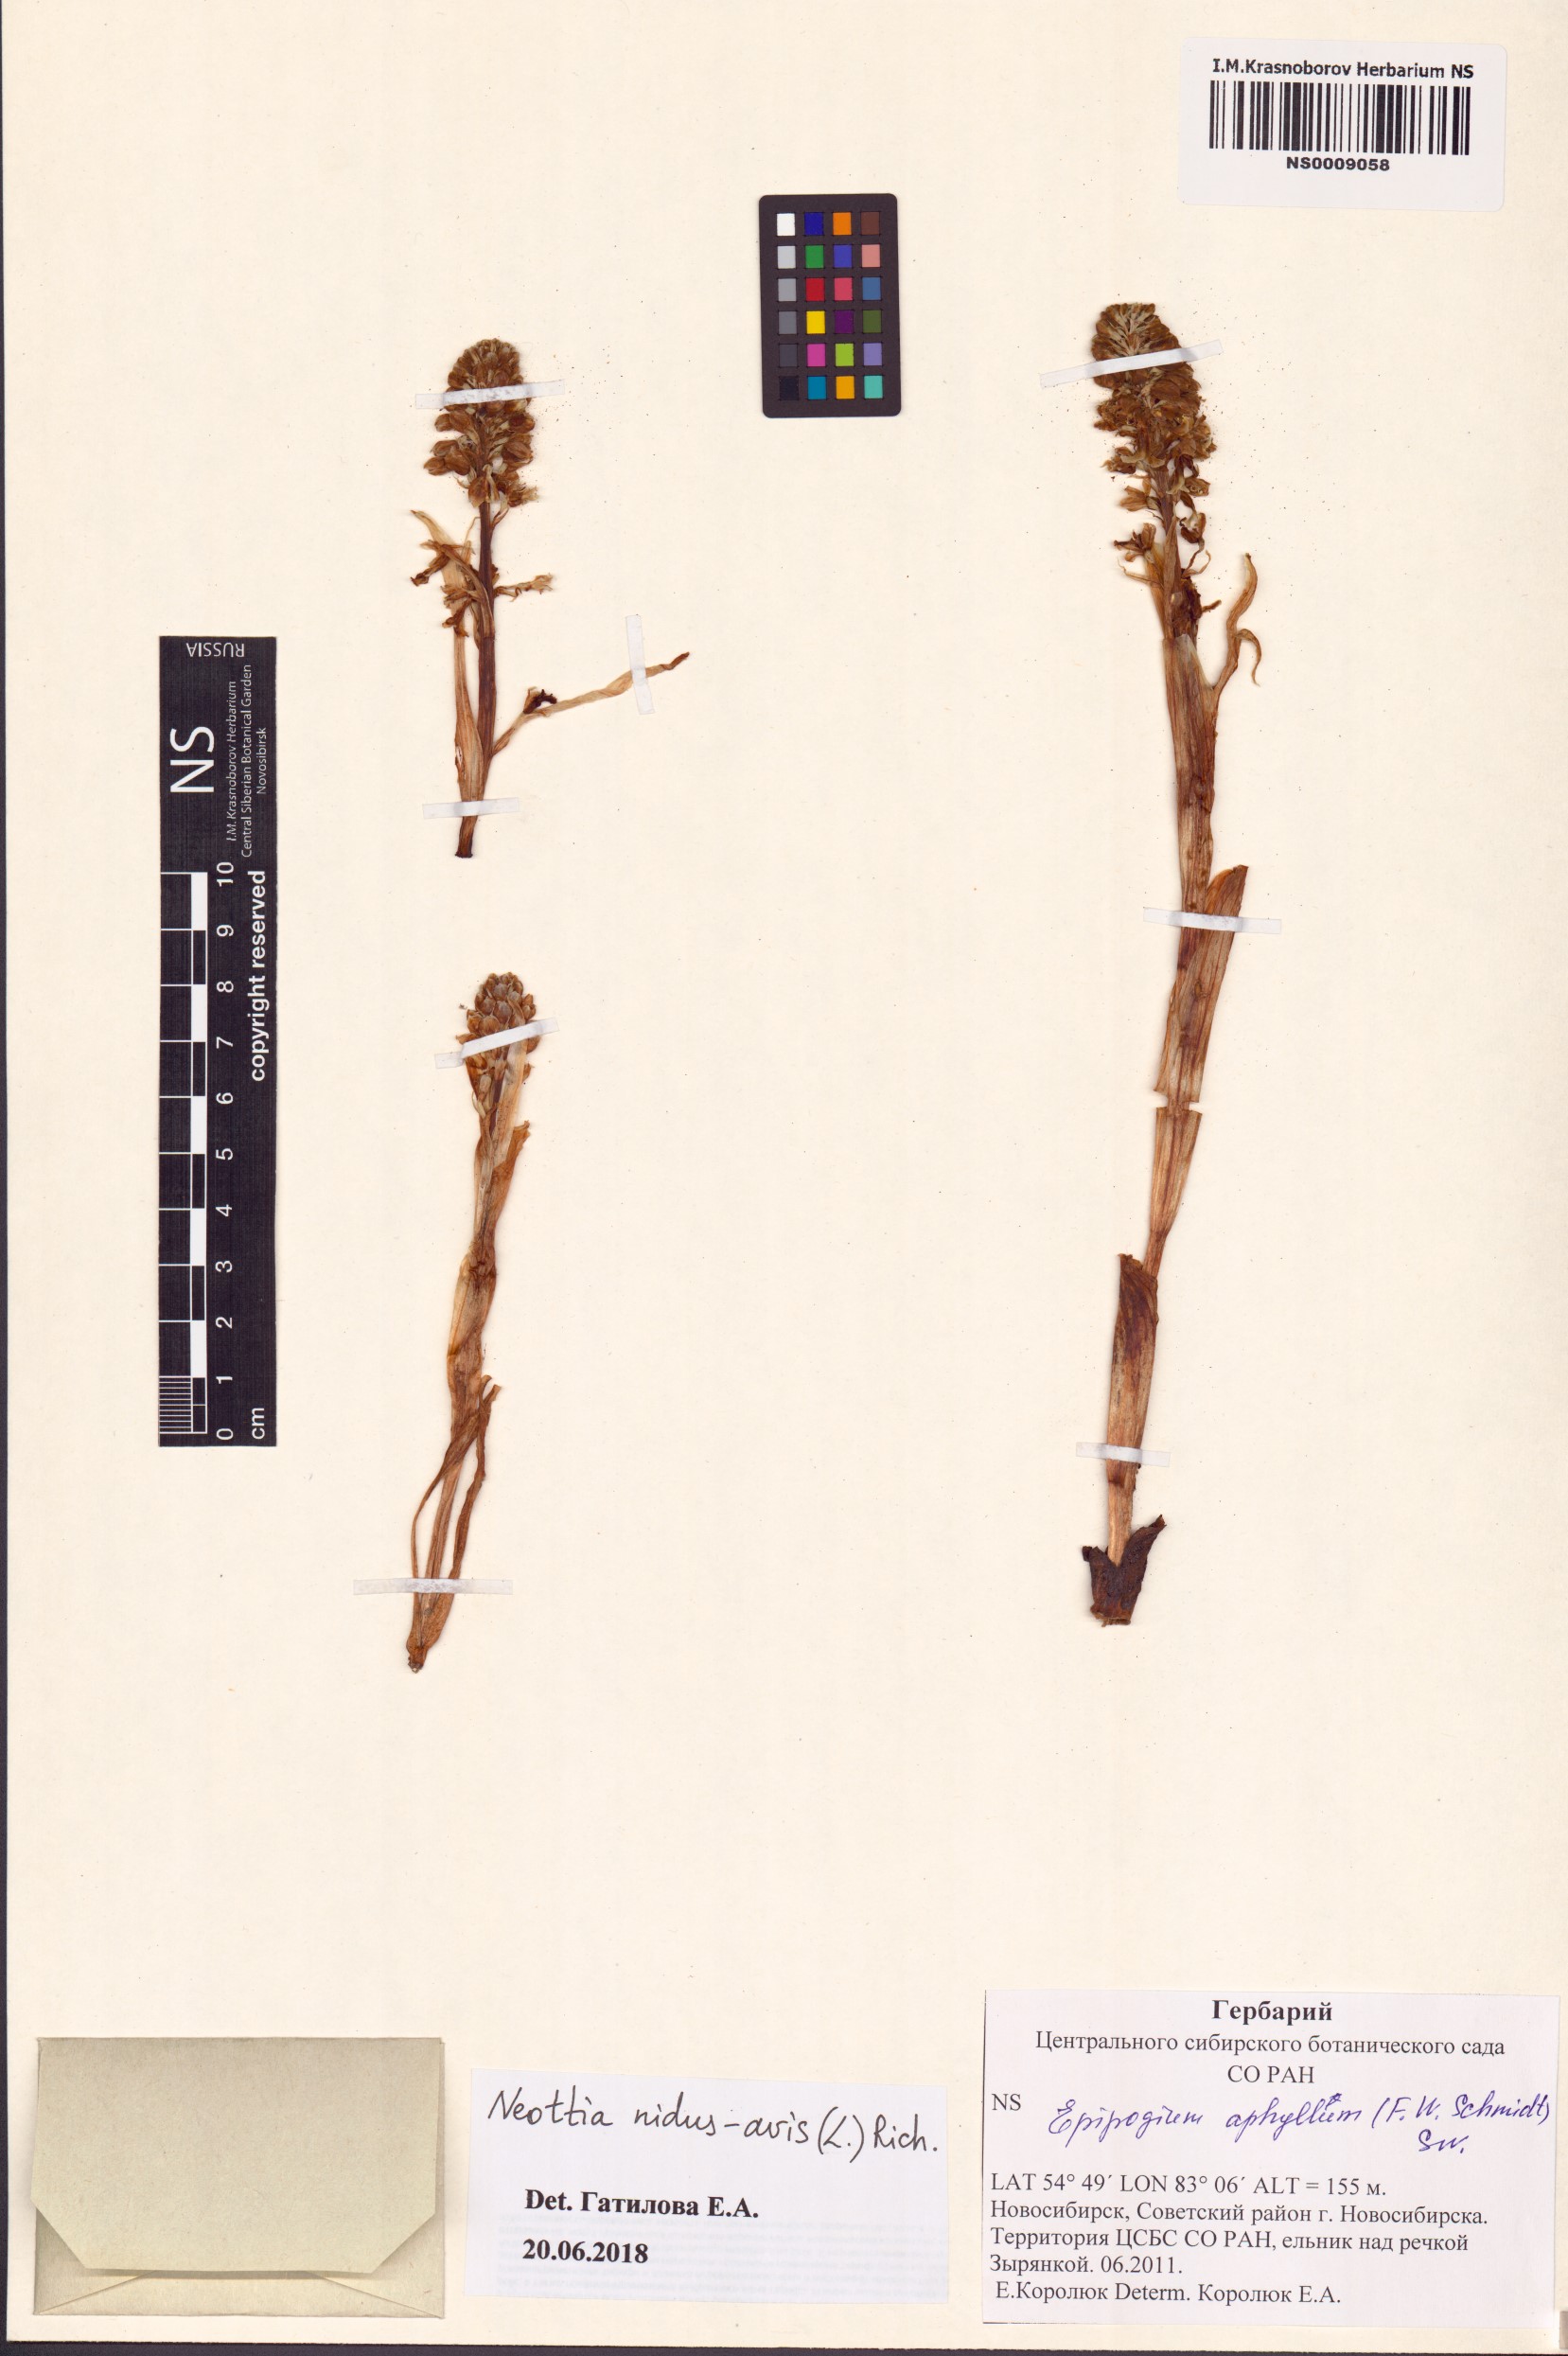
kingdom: Plantae
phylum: Tracheophyta
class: Liliopsida
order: Asparagales
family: Orchidaceae
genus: Neottia
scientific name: Neottia nidus-avis
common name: Bird's-nest orchid
